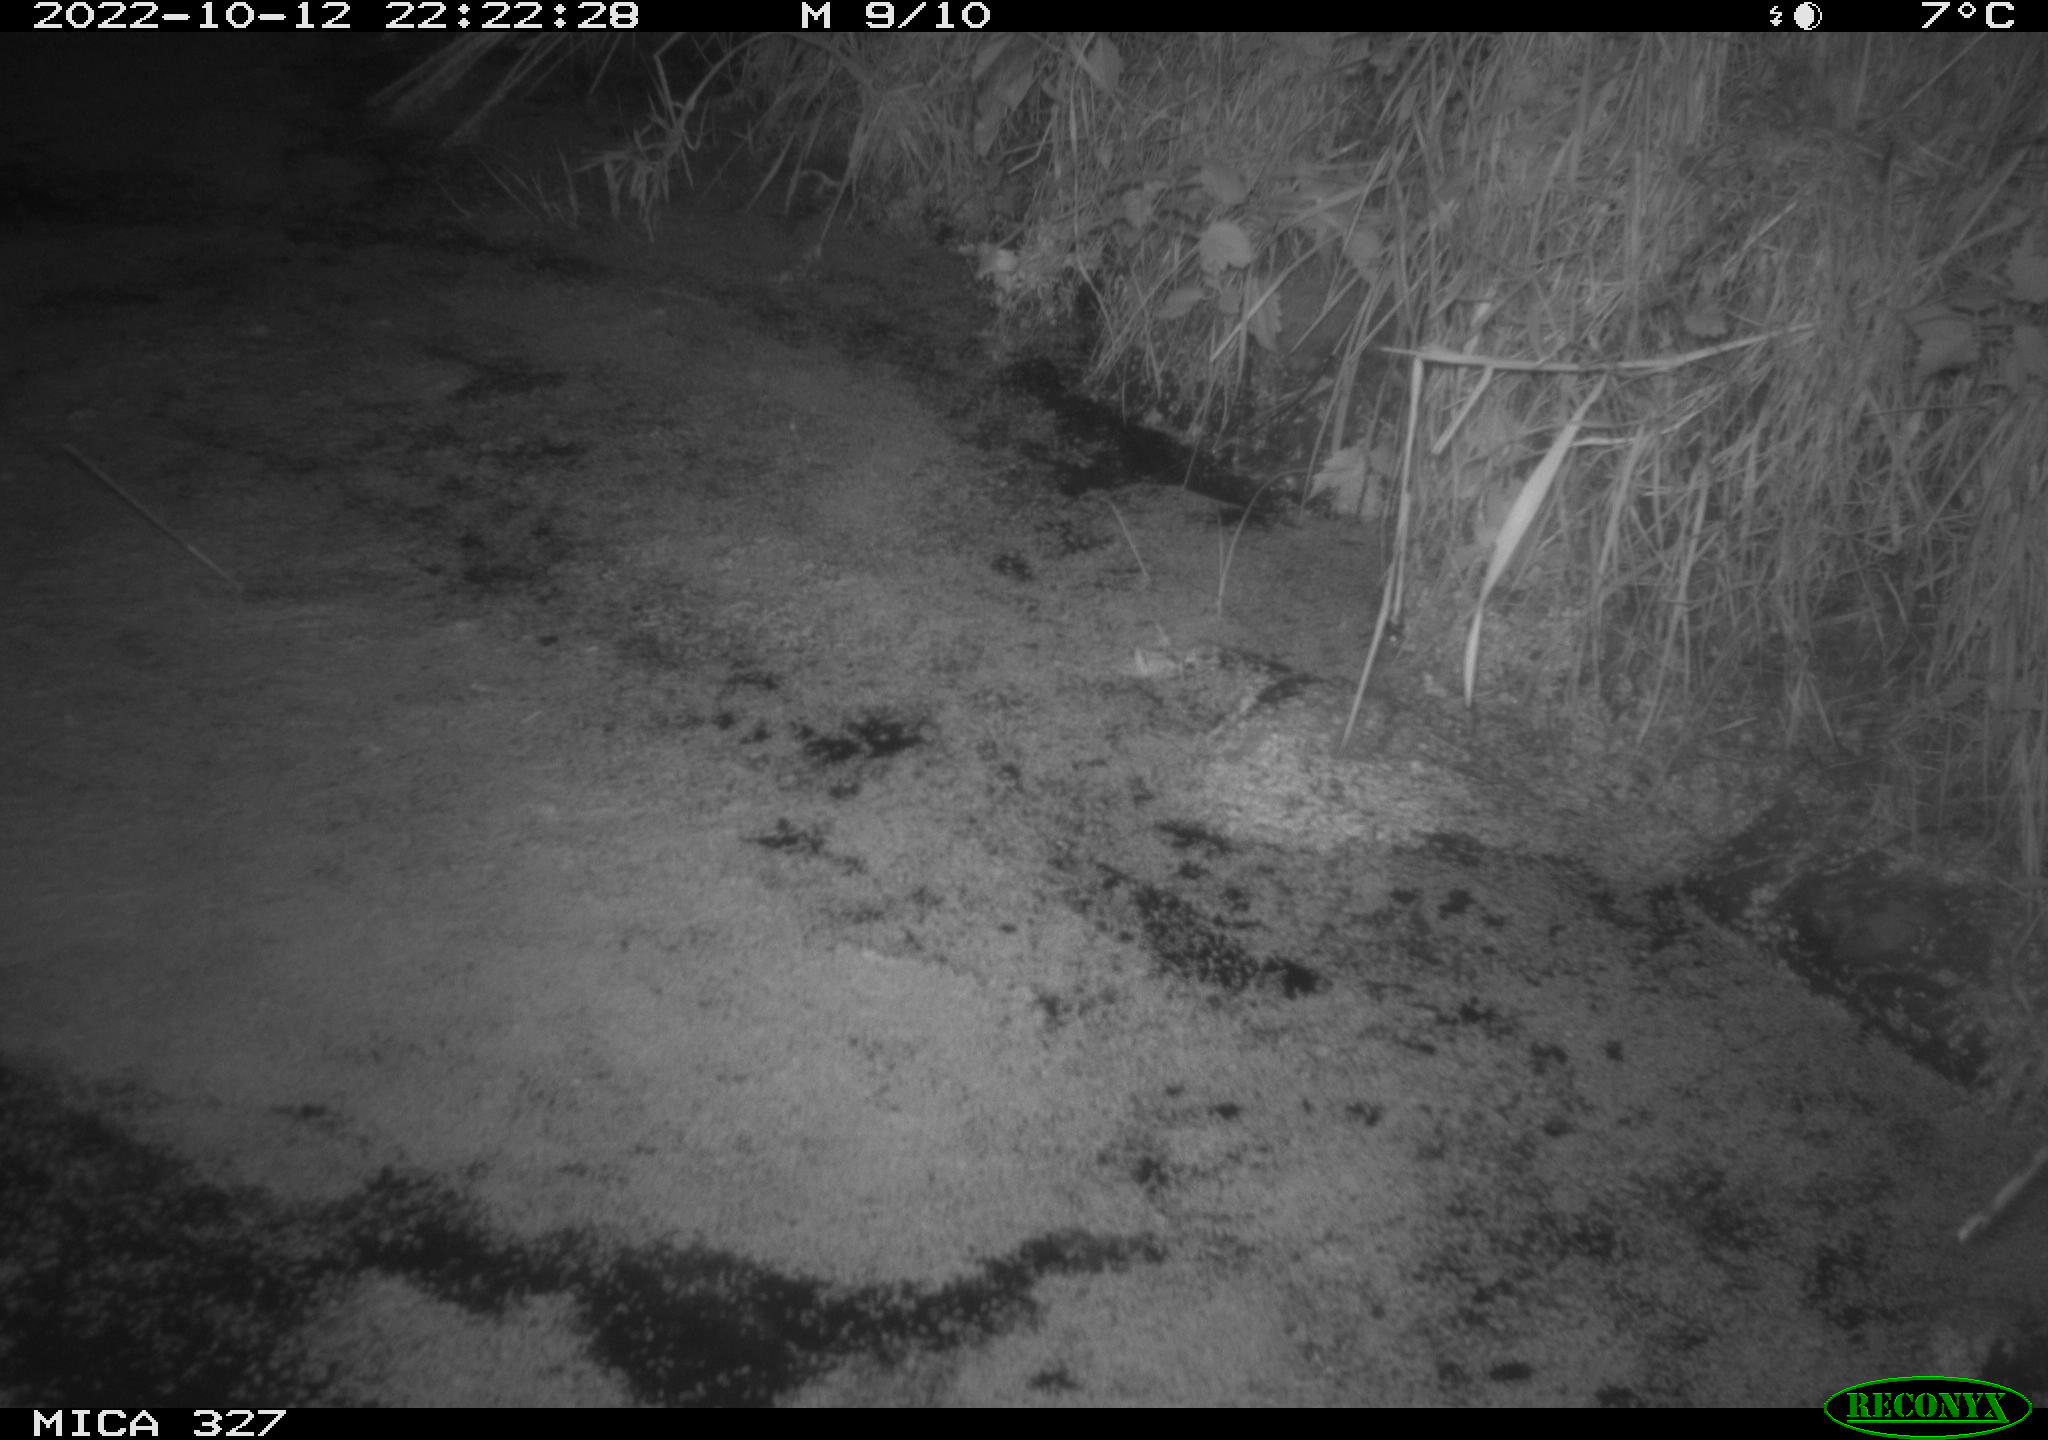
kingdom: Animalia
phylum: Chordata
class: Mammalia
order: Rodentia
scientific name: Rodentia
